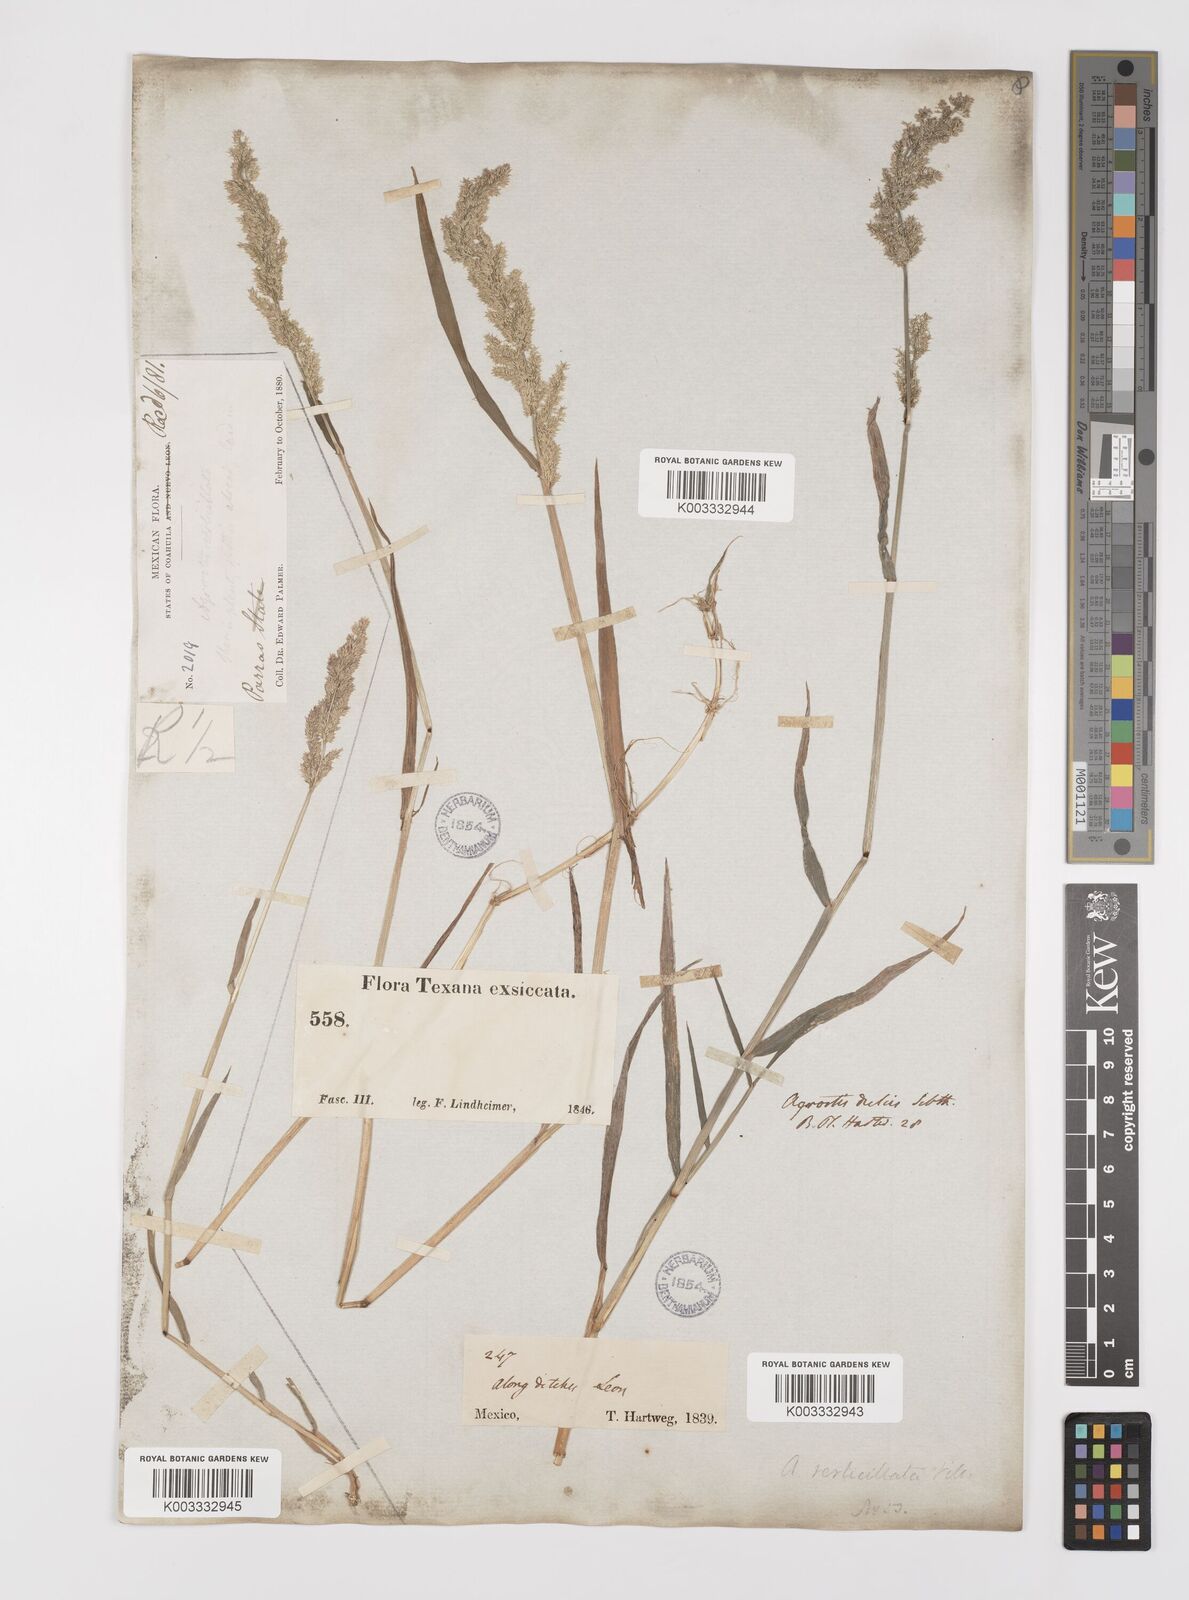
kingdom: Plantae
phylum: Tracheophyta
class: Liliopsida
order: Poales
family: Poaceae
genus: Polypogon
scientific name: Polypogon viridis
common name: Water bent
